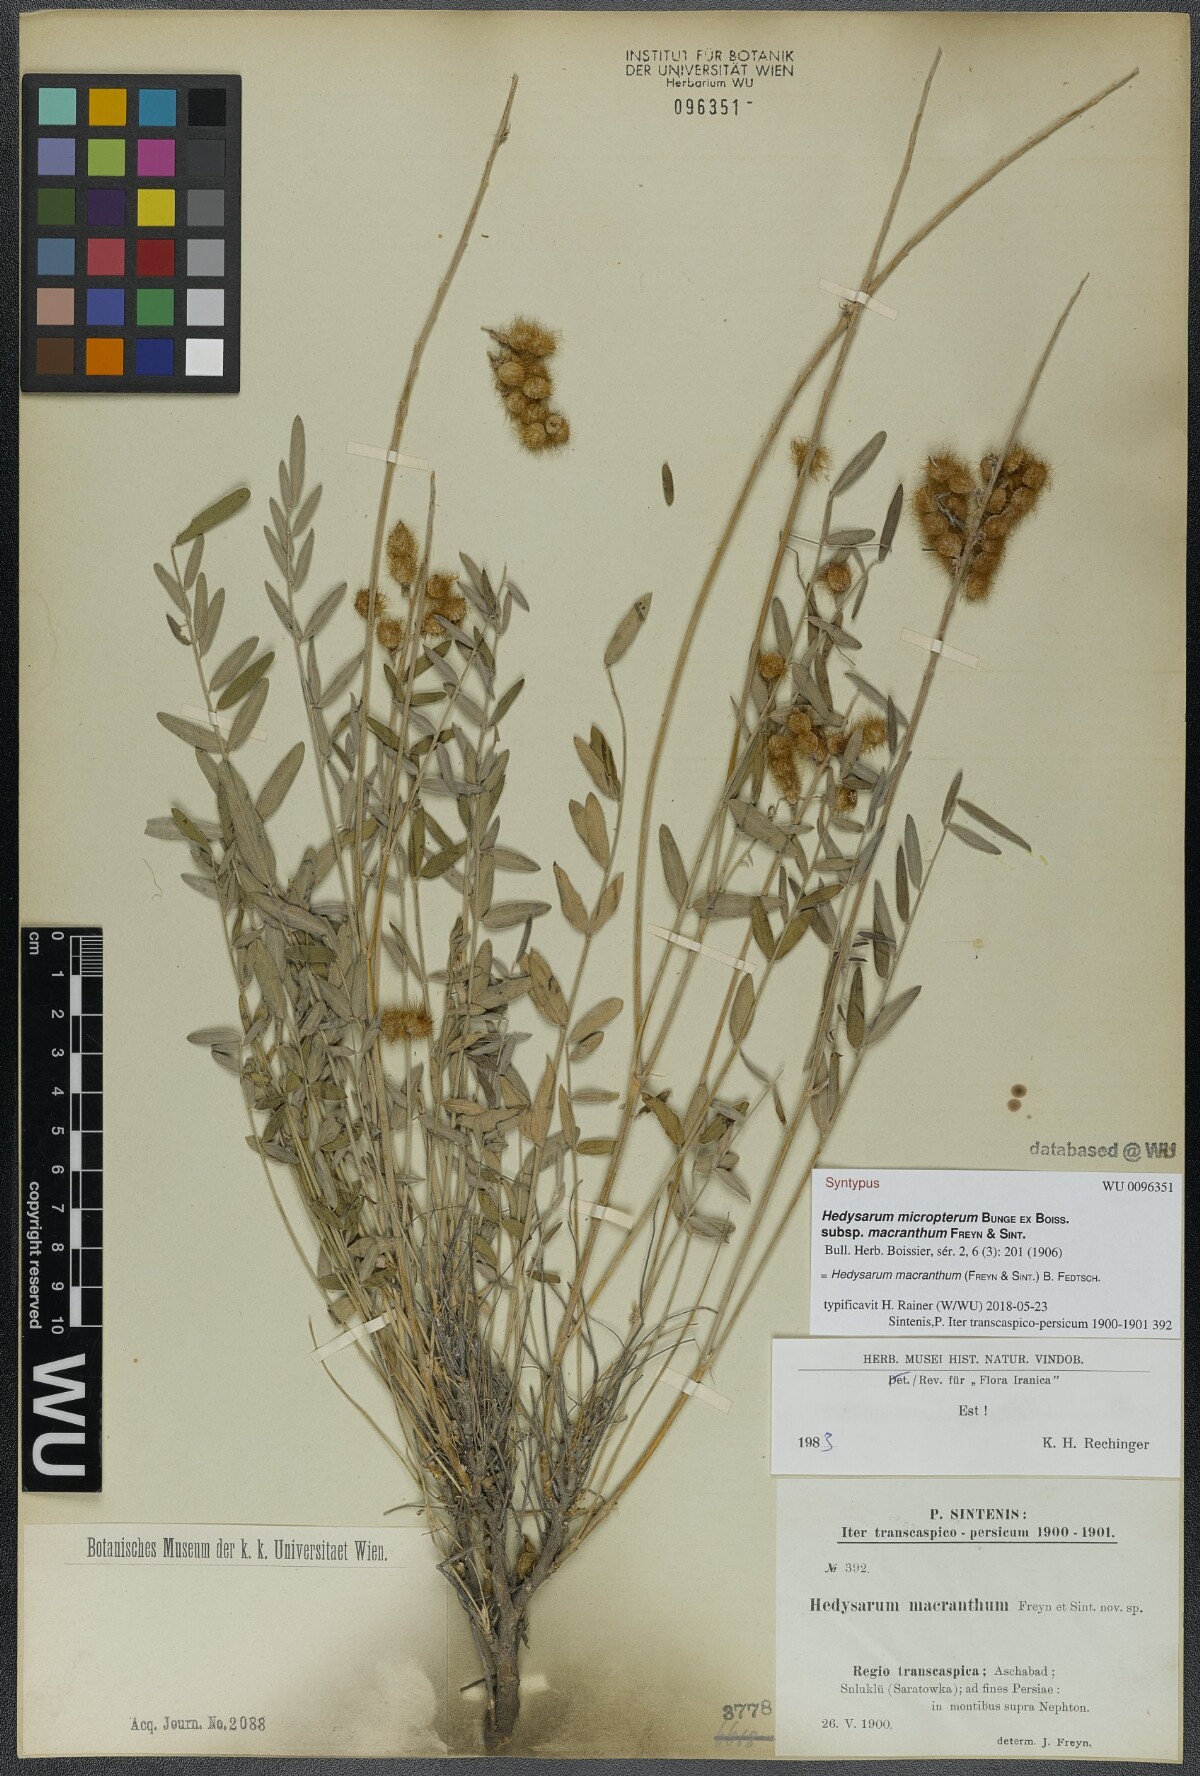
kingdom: Plantae
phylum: Tracheophyta
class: Magnoliopsida
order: Fabales
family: Fabaceae
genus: Hedysarum
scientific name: Hedysarum macranthum
